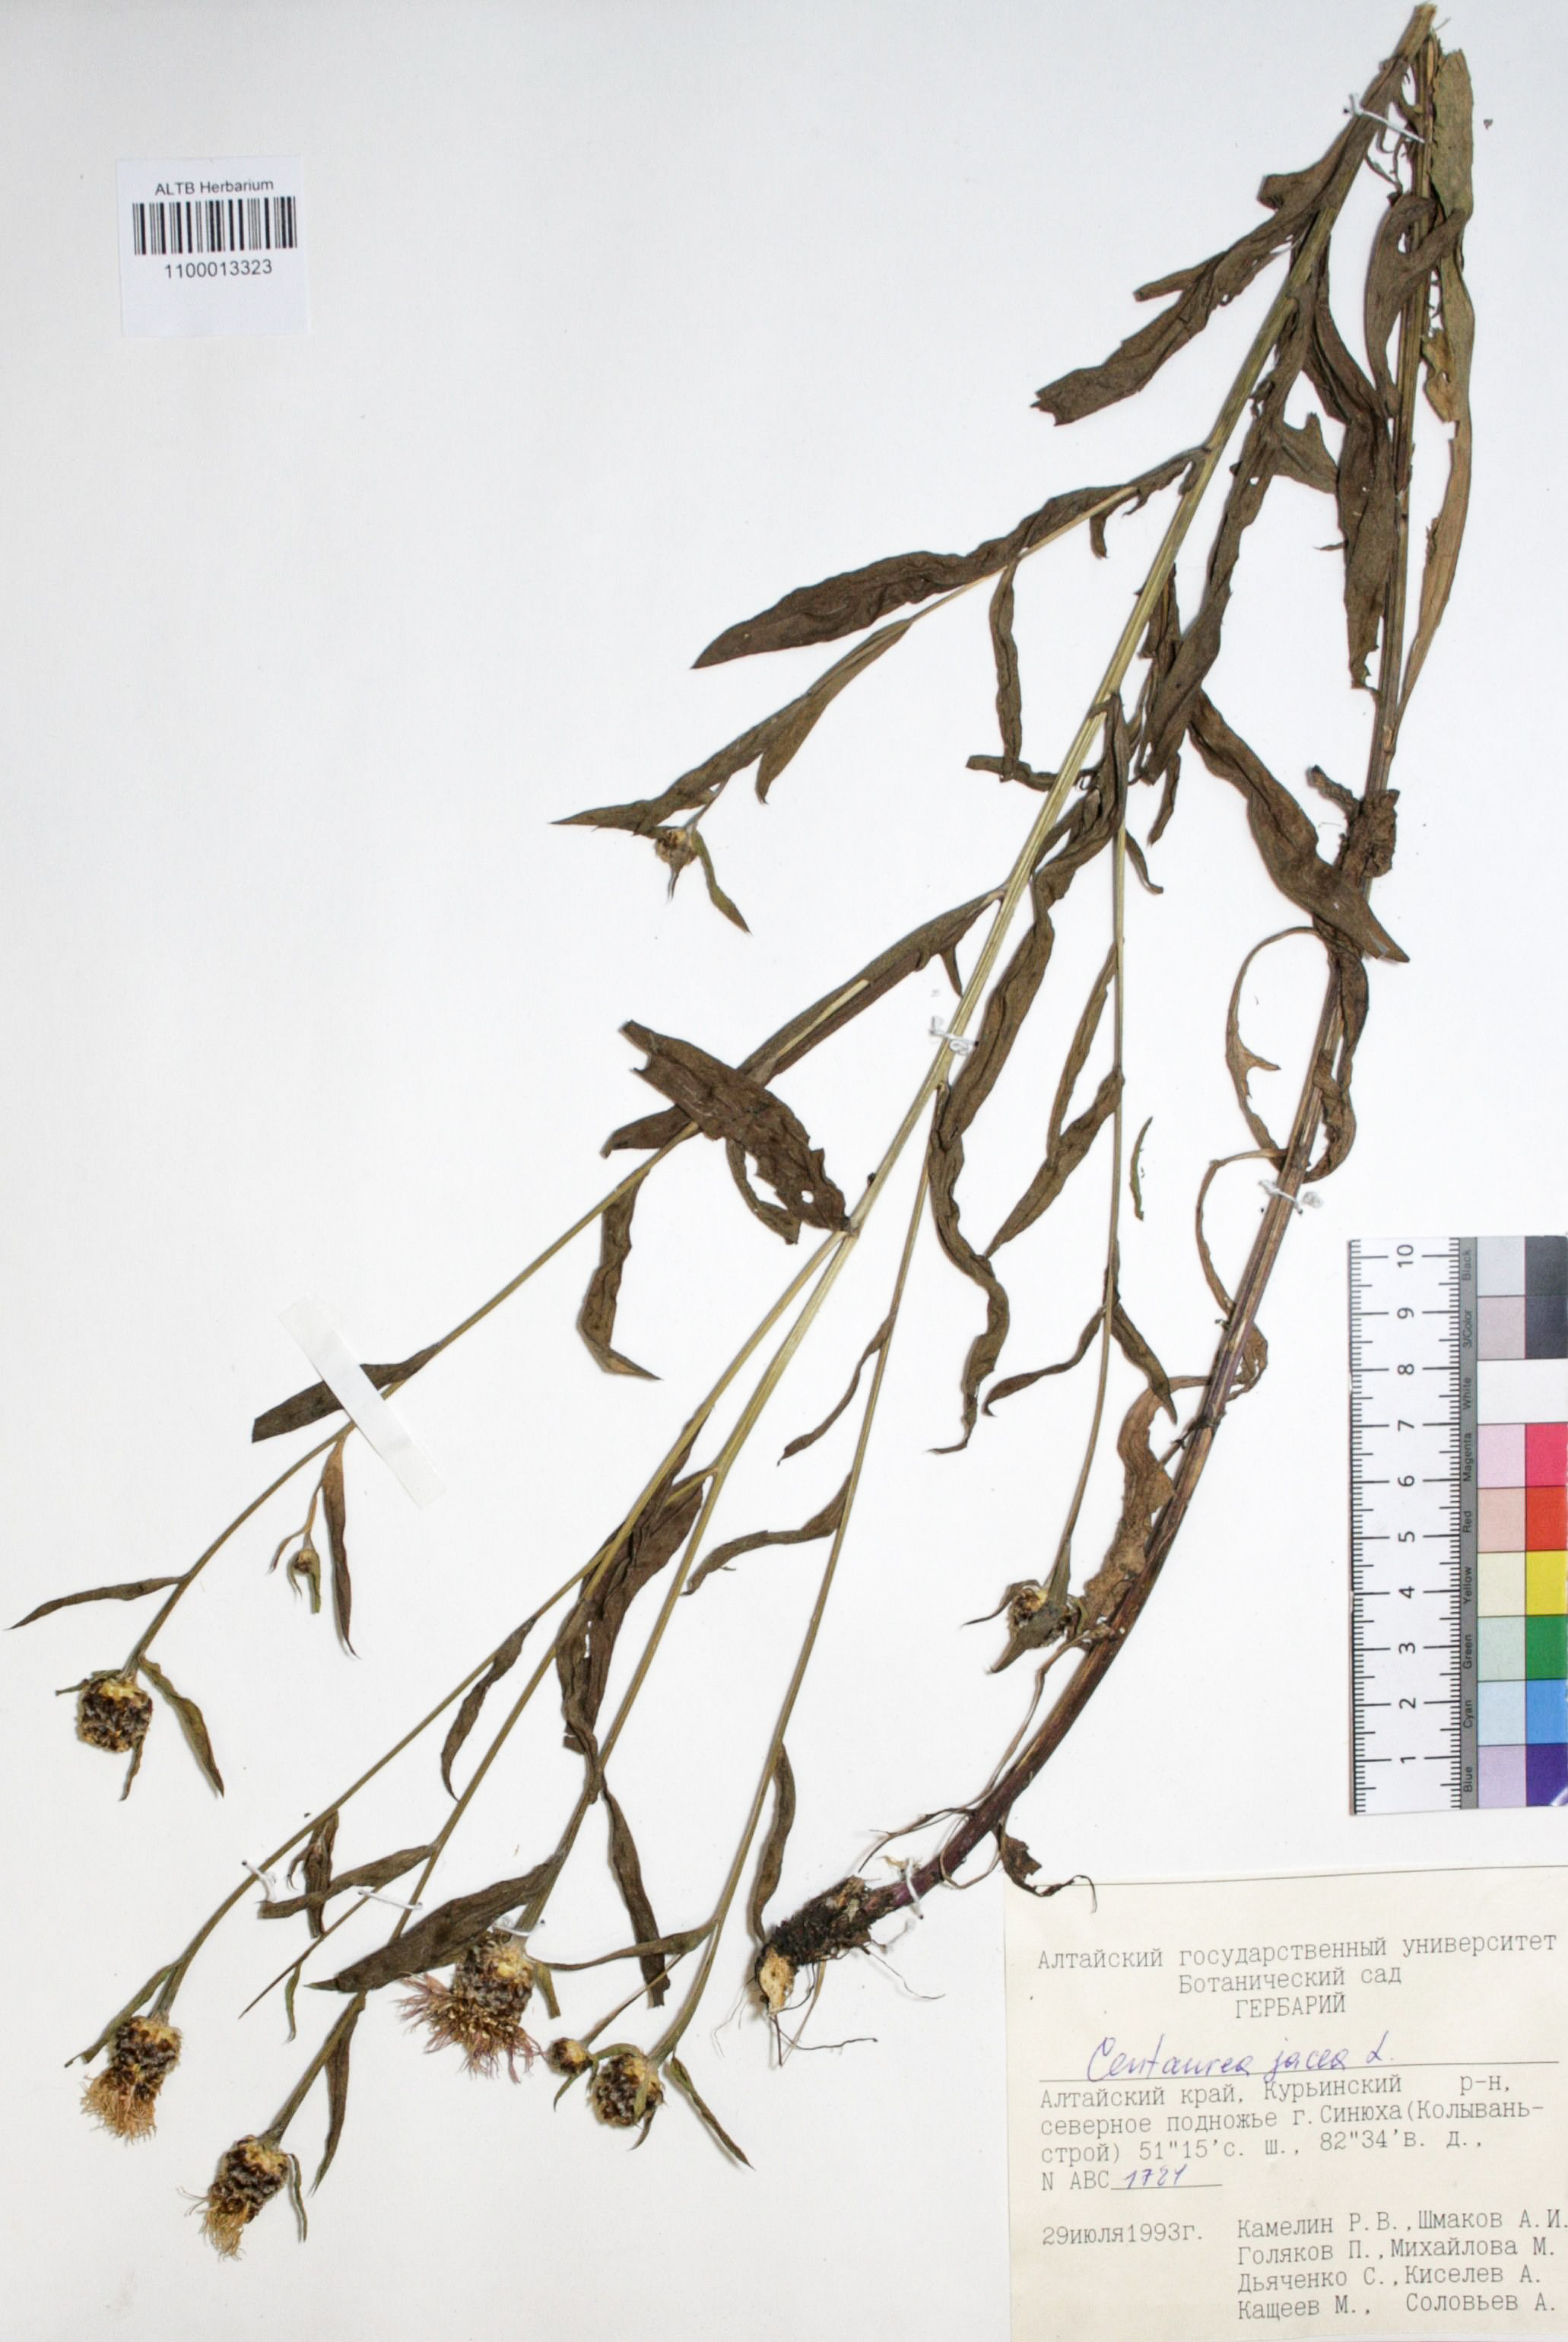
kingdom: Plantae
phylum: Tracheophyta
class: Magnoliopsida
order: Asterales
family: Asteraceae
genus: Centaurea
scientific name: Centaurea jacea
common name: Brown knapweed
